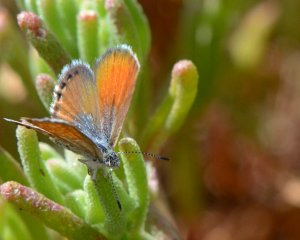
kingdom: Animalia
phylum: Arthropoda
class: Insecta
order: Lepidoptera
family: Lycaenidae
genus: Brephidium
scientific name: Brephidium exilis
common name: Western Pygmy-Blue
